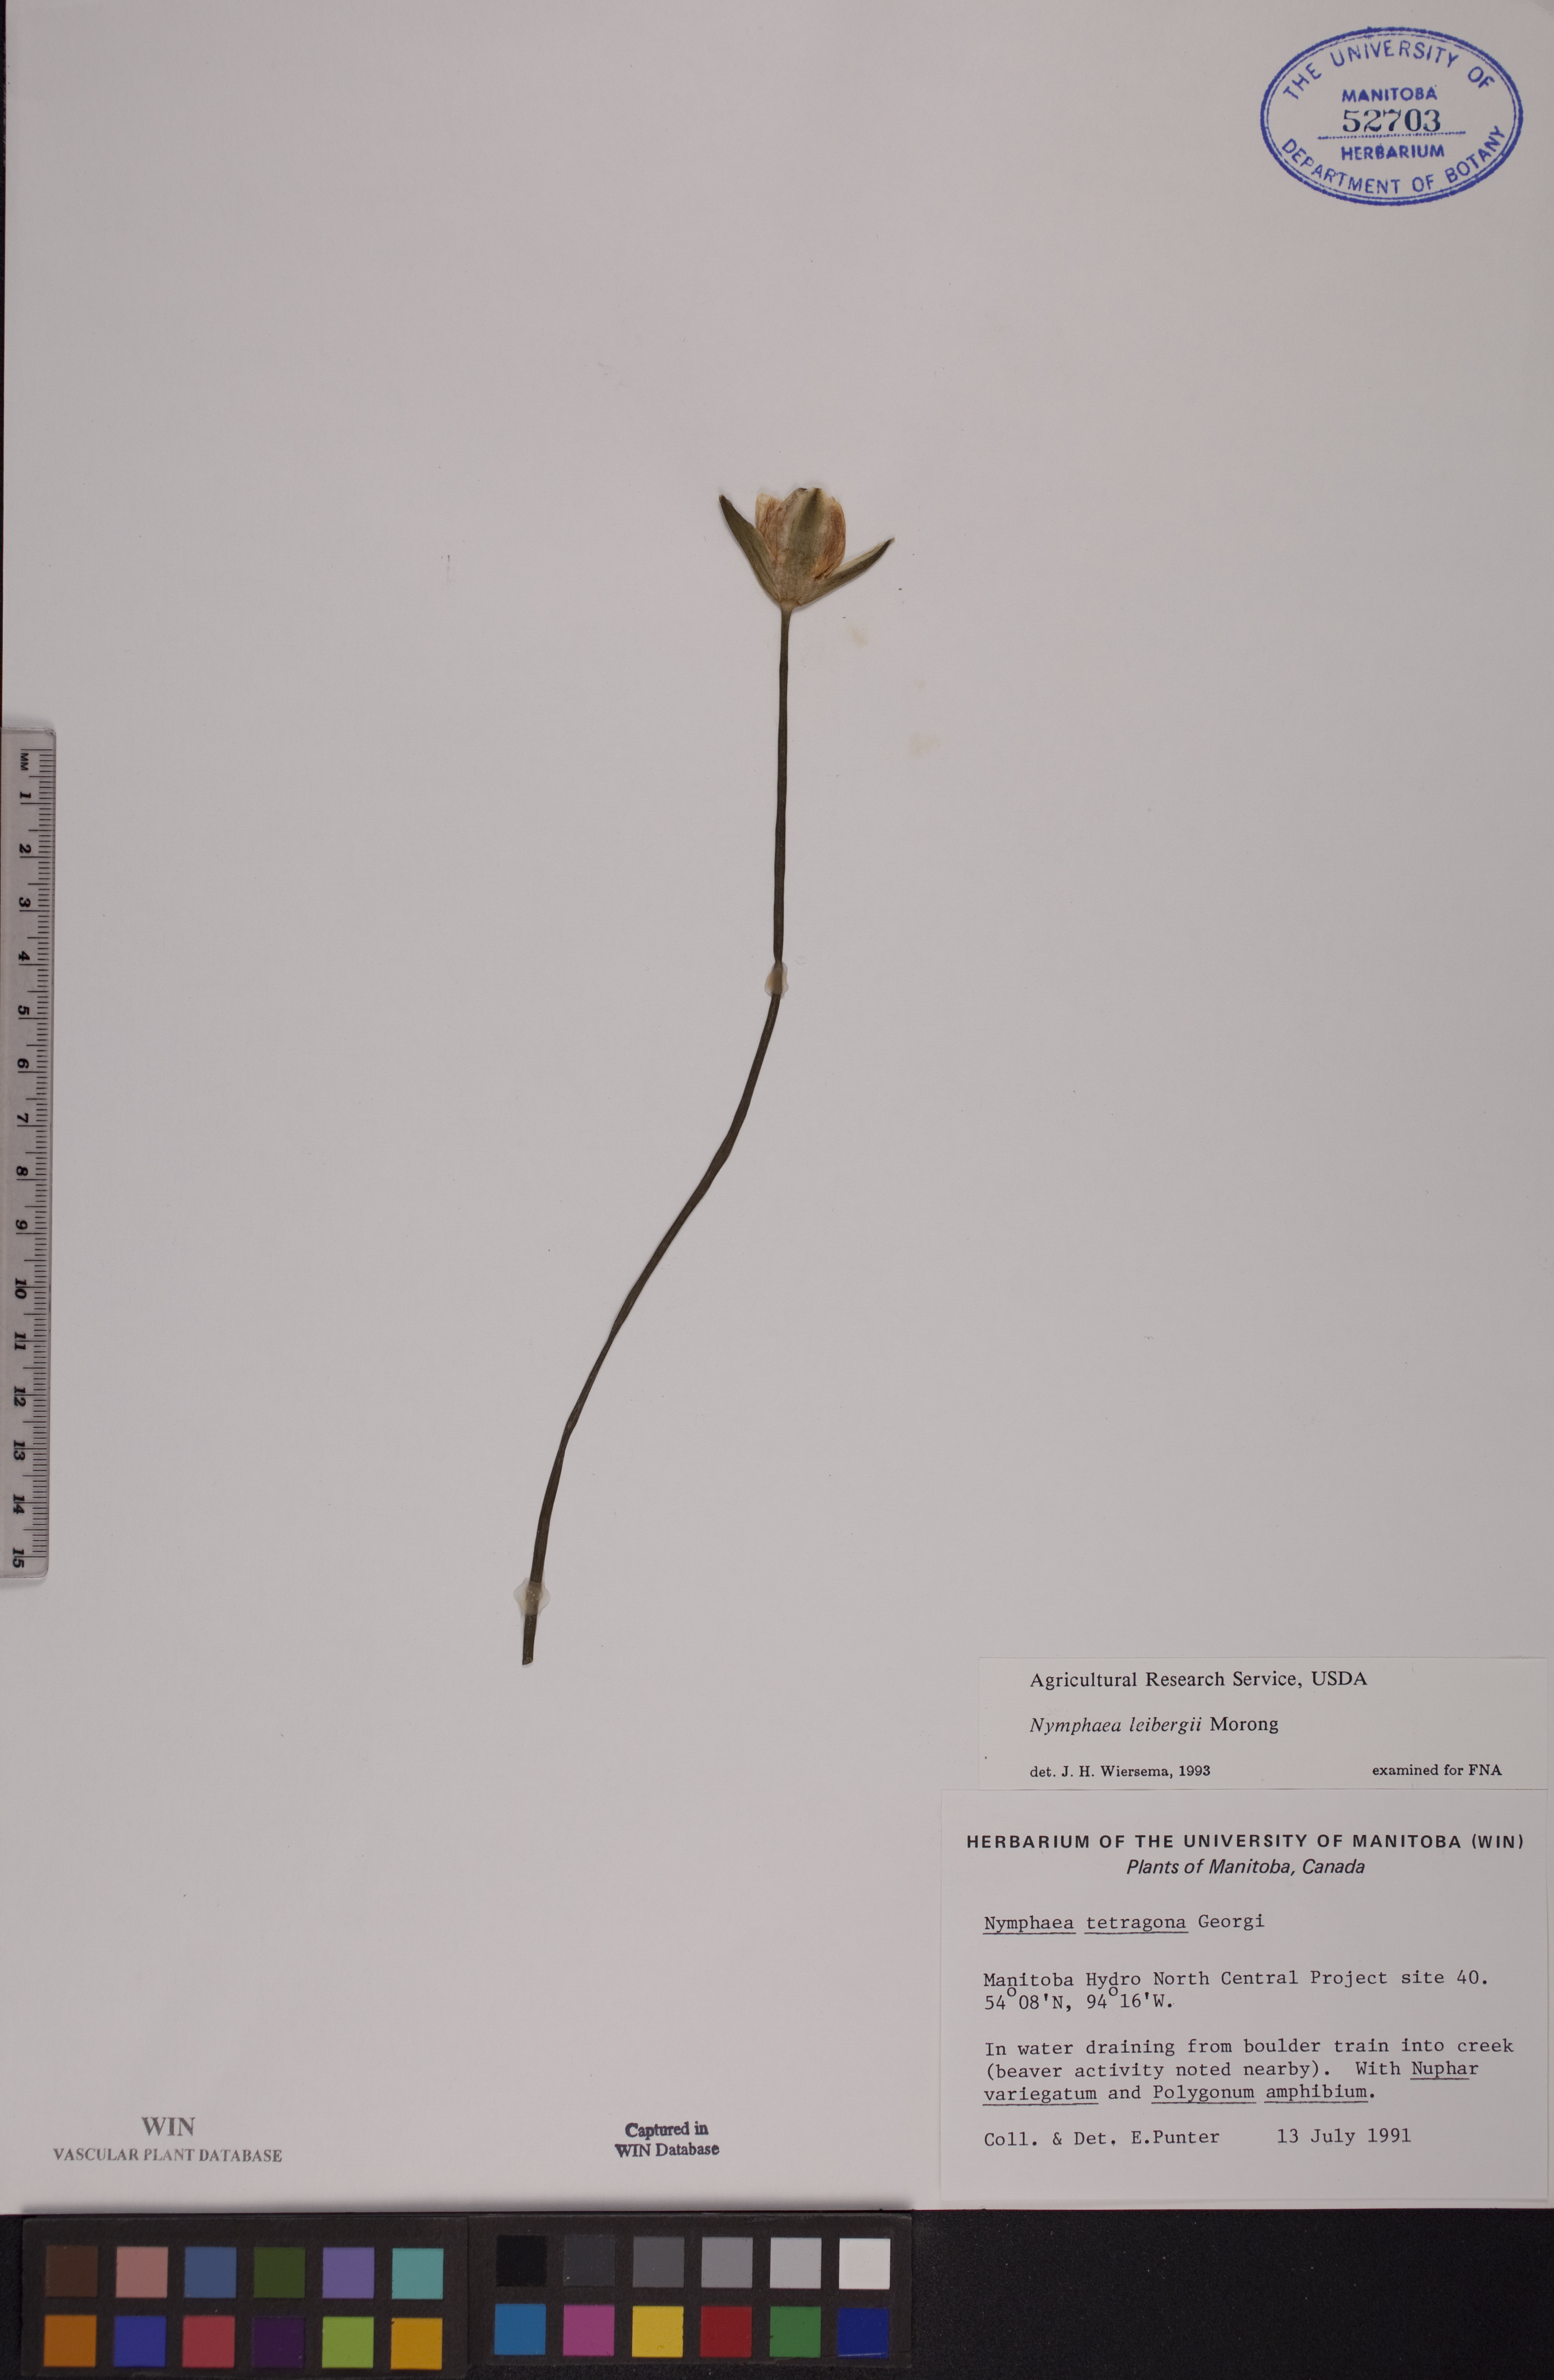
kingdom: Plantae
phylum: Tracheophyta
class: Magnoliopsida
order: Nymphaeales
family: Nymphaeaceae
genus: Nymphaea
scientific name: Nymphaea leibergii
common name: Dwarf water-lily
